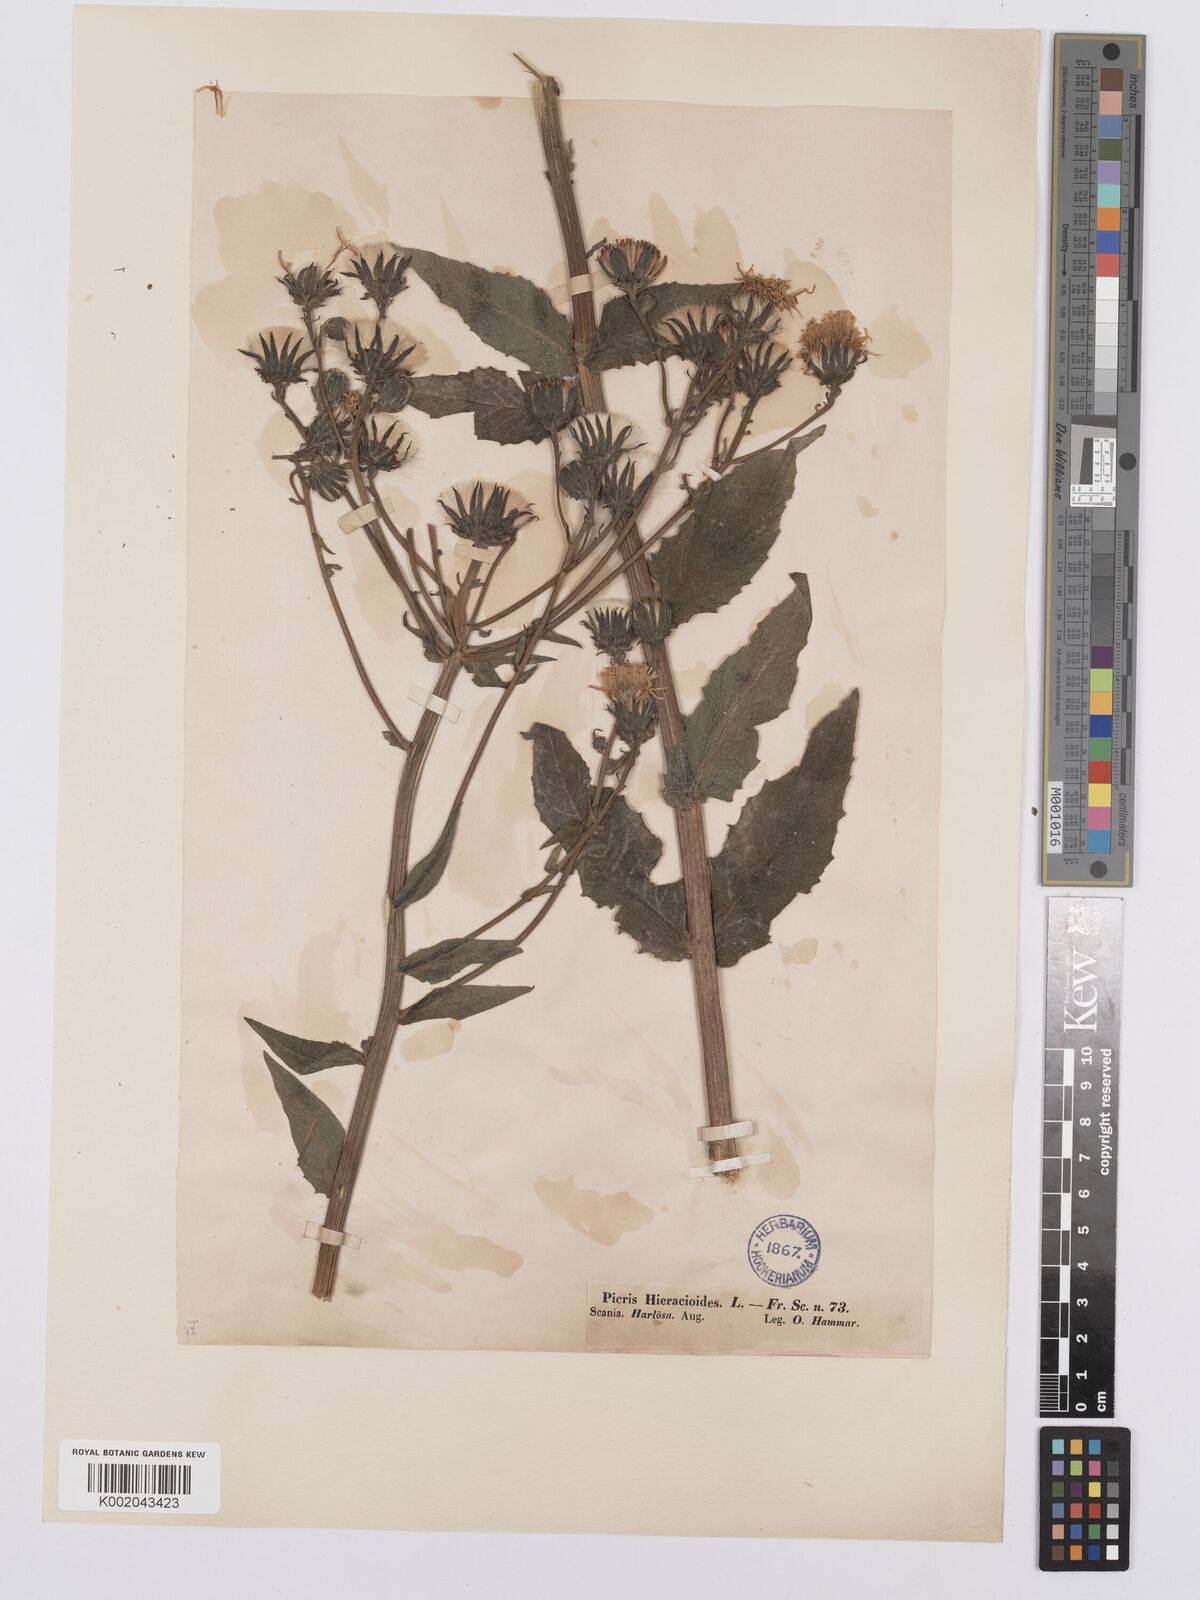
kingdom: Plantae
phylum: Tracheophyta
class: Magnoliopsida
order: Asterales
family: Asteraceae
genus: Picris
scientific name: Picris hieracioides
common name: Hawkweed oxtongue
